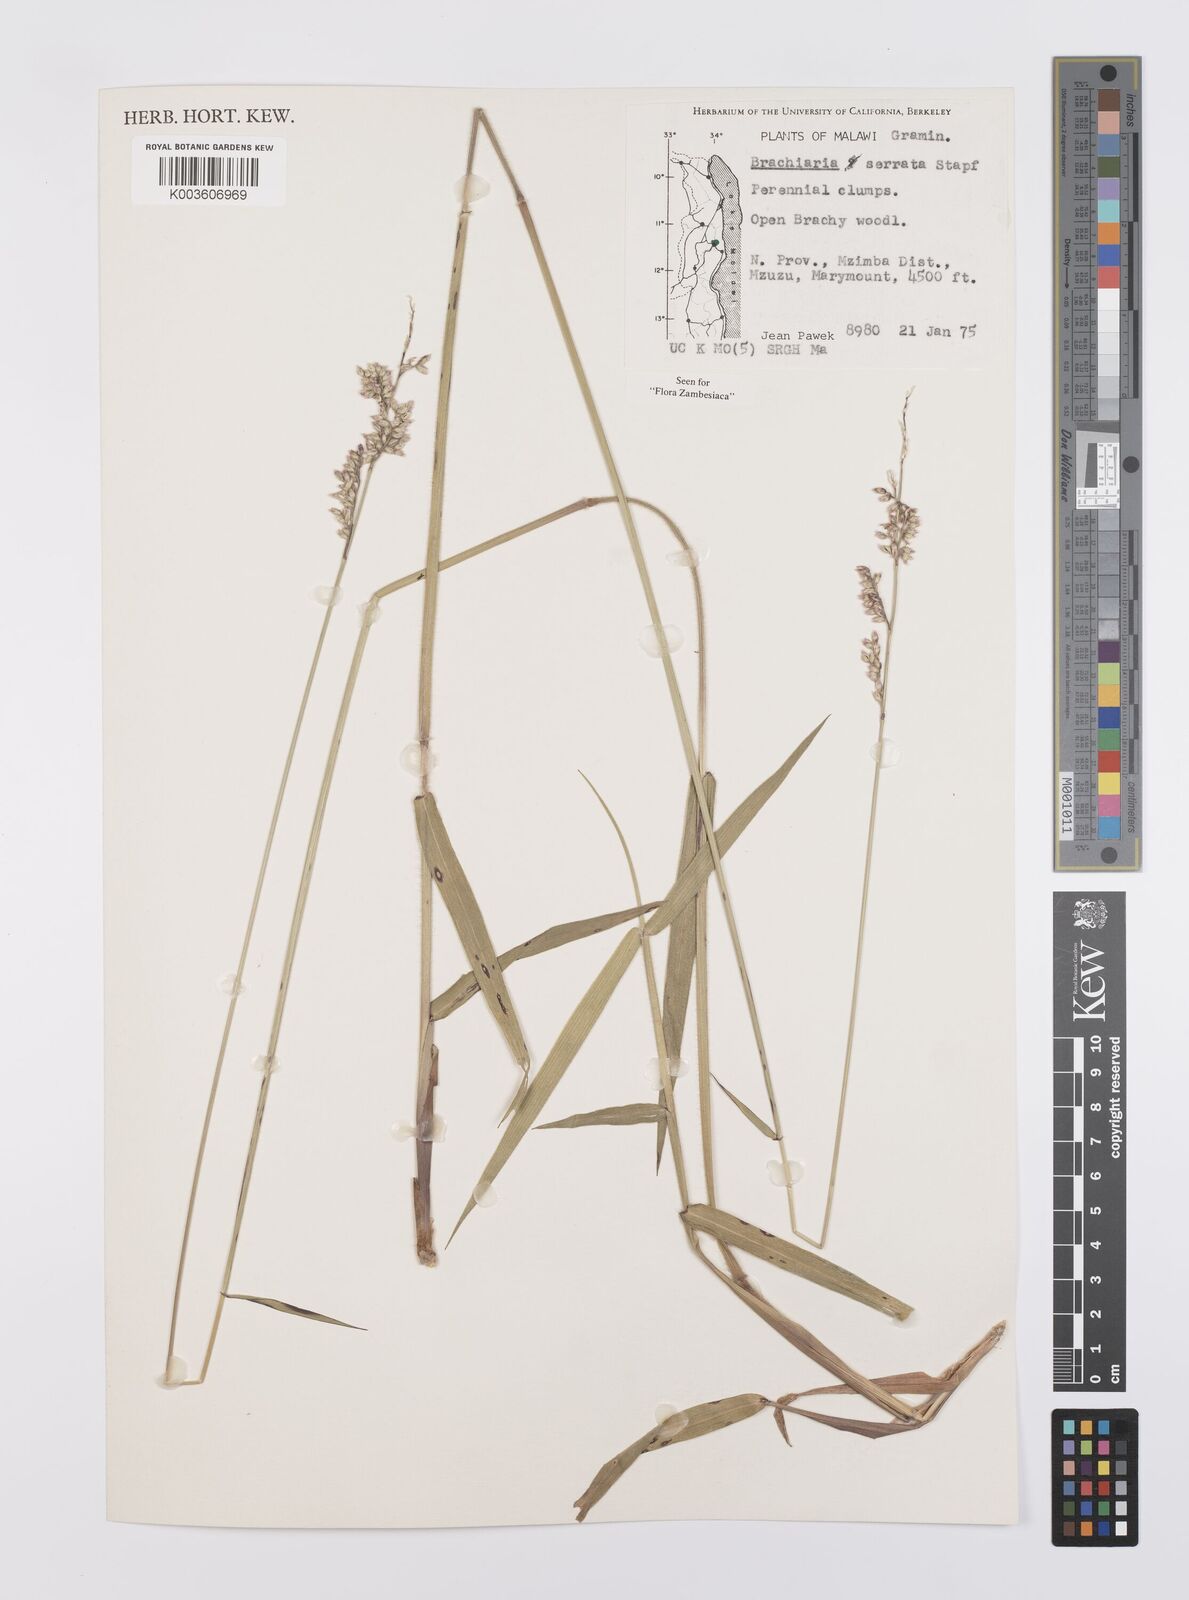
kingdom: Plantae
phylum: Tracheophyta
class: Liliopsida
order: Poales
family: Poaceae
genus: Urochloa
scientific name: Urochloa serrata
